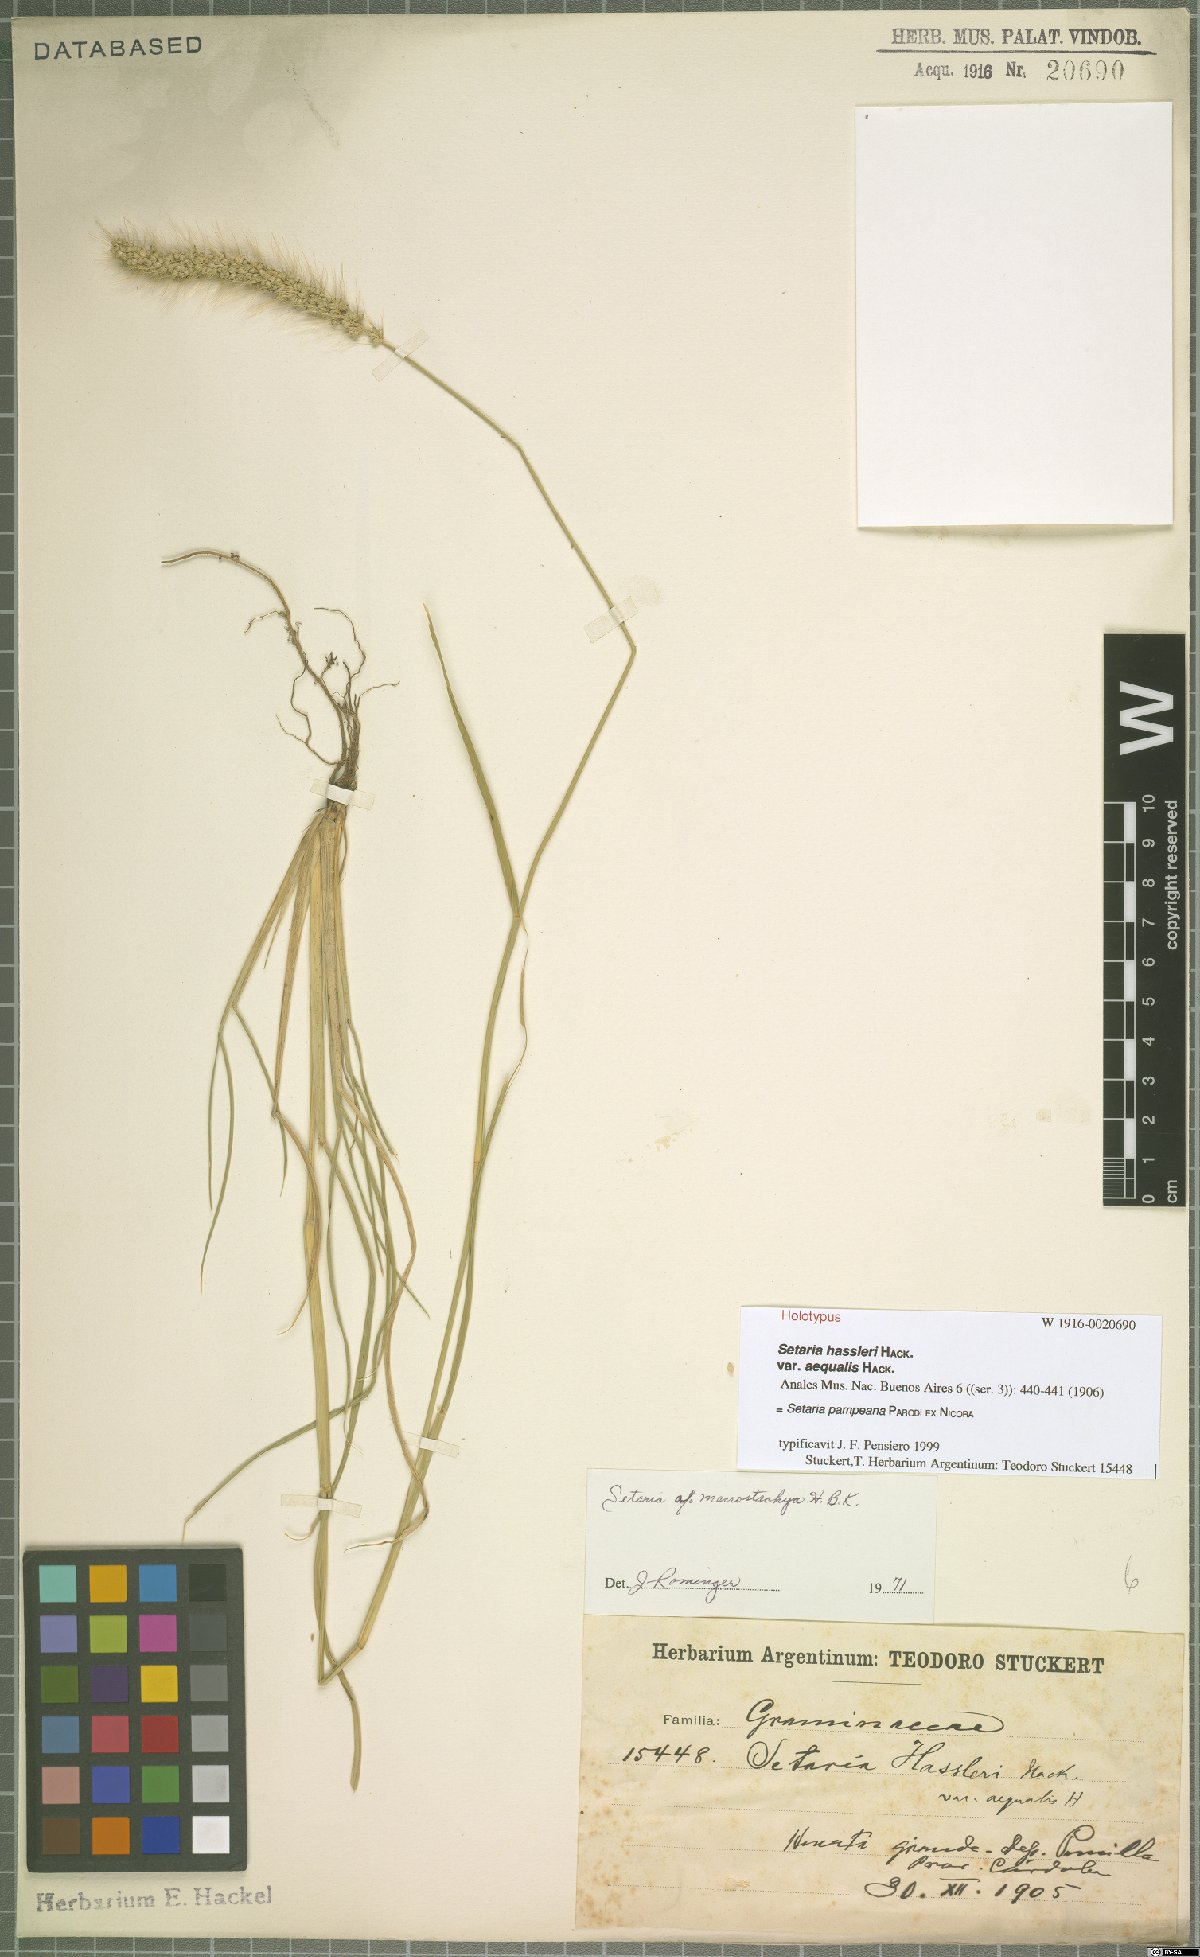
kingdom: Plantae
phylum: Tracheophyta
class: Liliopsida
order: Poales
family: Poaceae
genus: Setaria
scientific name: Setaria pampeana
